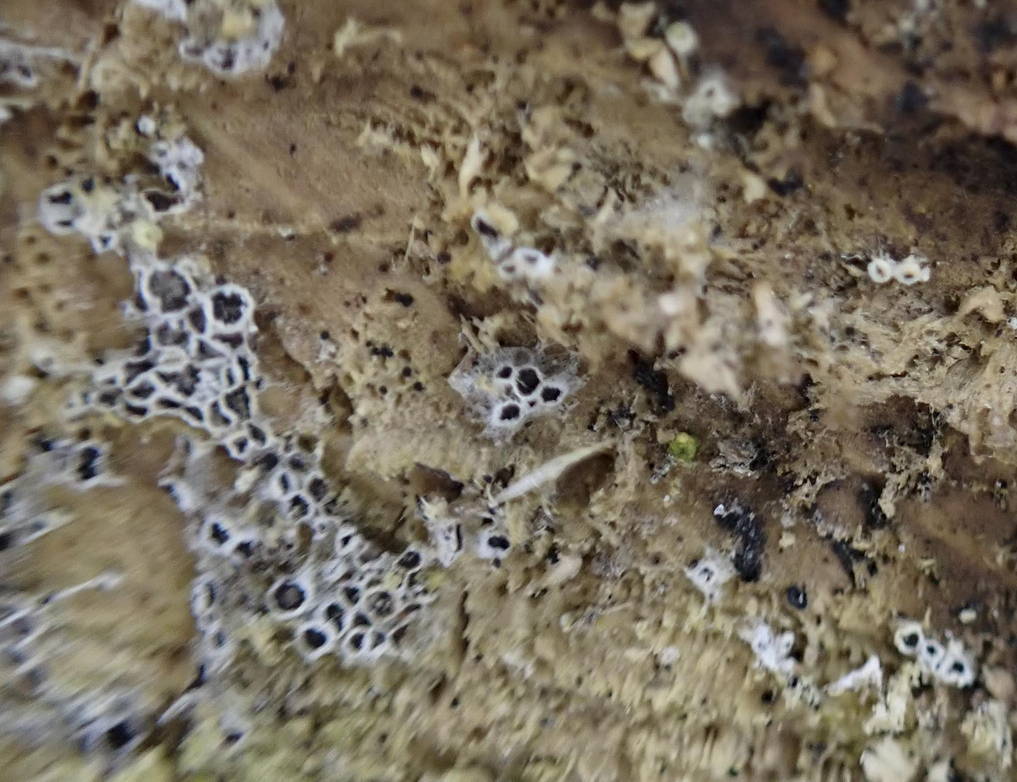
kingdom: Fungi
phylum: Ascomycota
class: Leotiomycetes
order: Helotiales
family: Arachnopezizaceae
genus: Eriopezia
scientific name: Eriopezia caesia
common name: ege-spindskive
